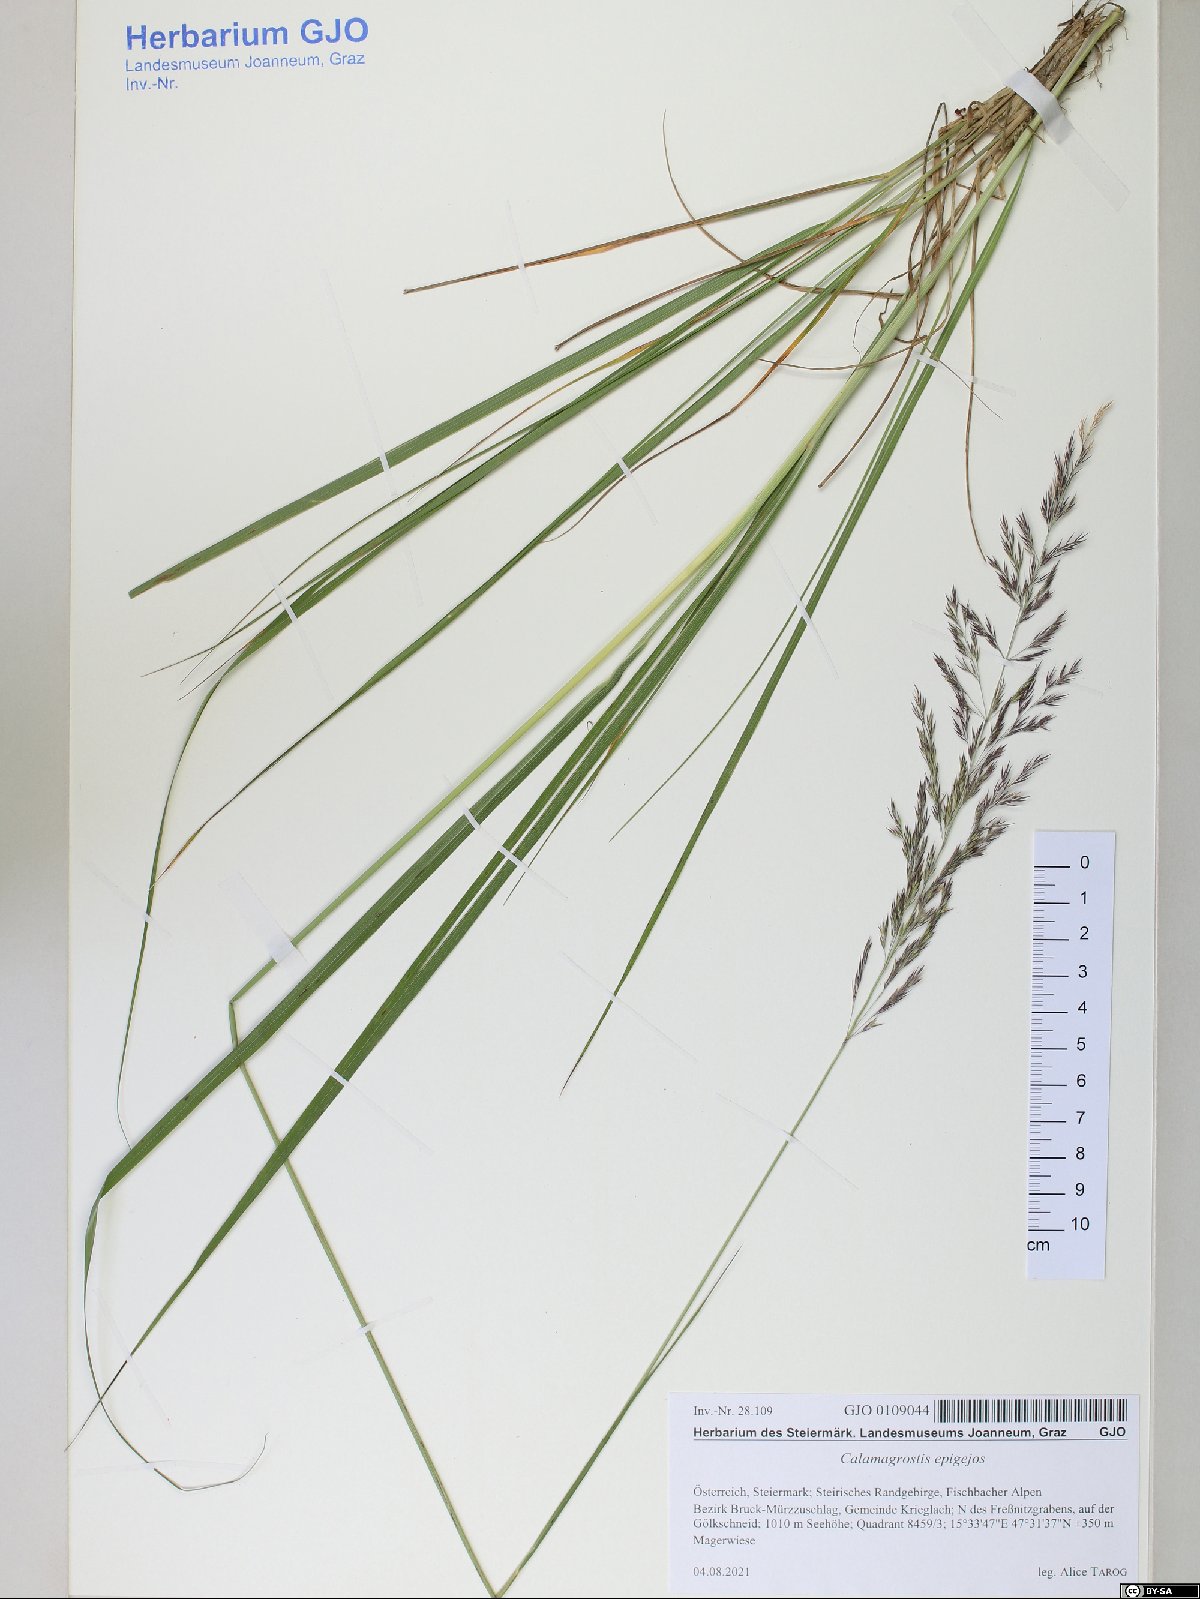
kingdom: Plantae
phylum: Tracheophyta
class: Liliopsida
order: Poales
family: Poaceae
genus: Calamagrostis
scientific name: Calamagrostis epigejos
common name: Wood small-reed
